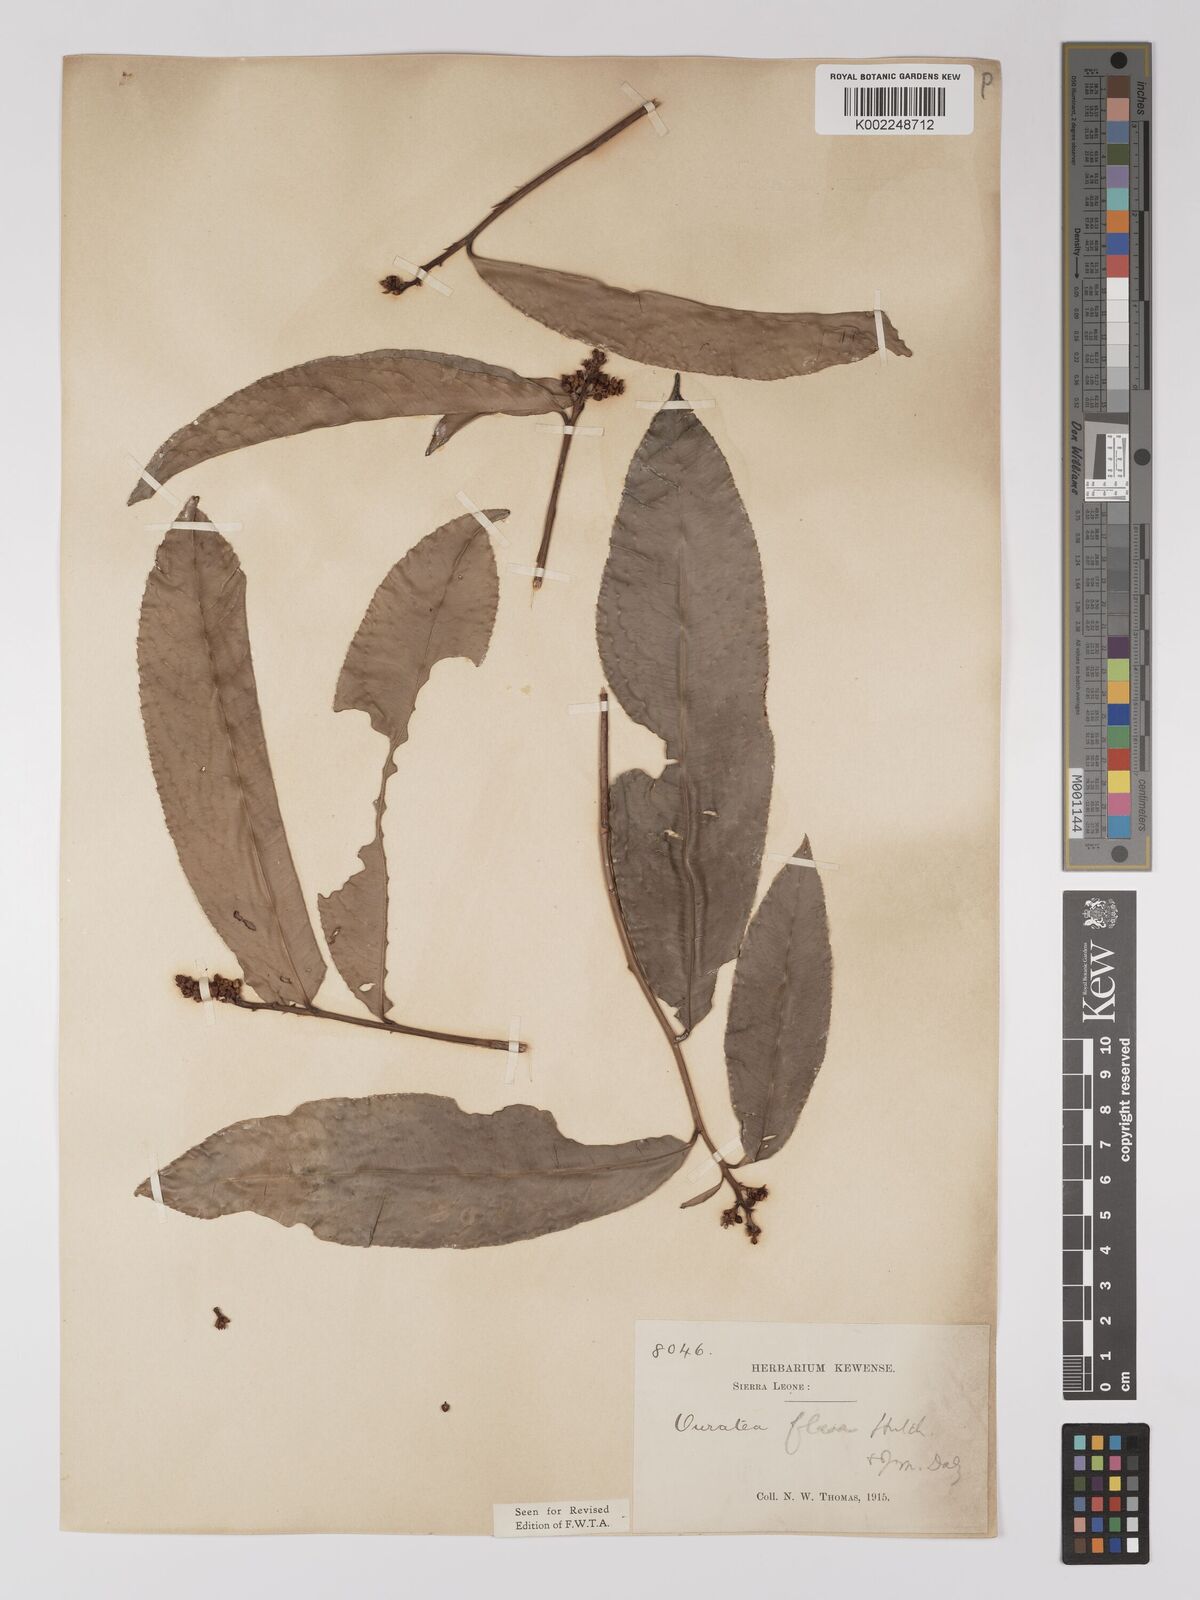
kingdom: Plantae
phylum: Tracheophyta
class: Magnoliopsida
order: Malpighiales
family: Ochnaceae
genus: Campylospermum
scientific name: Campylospermum flavum
